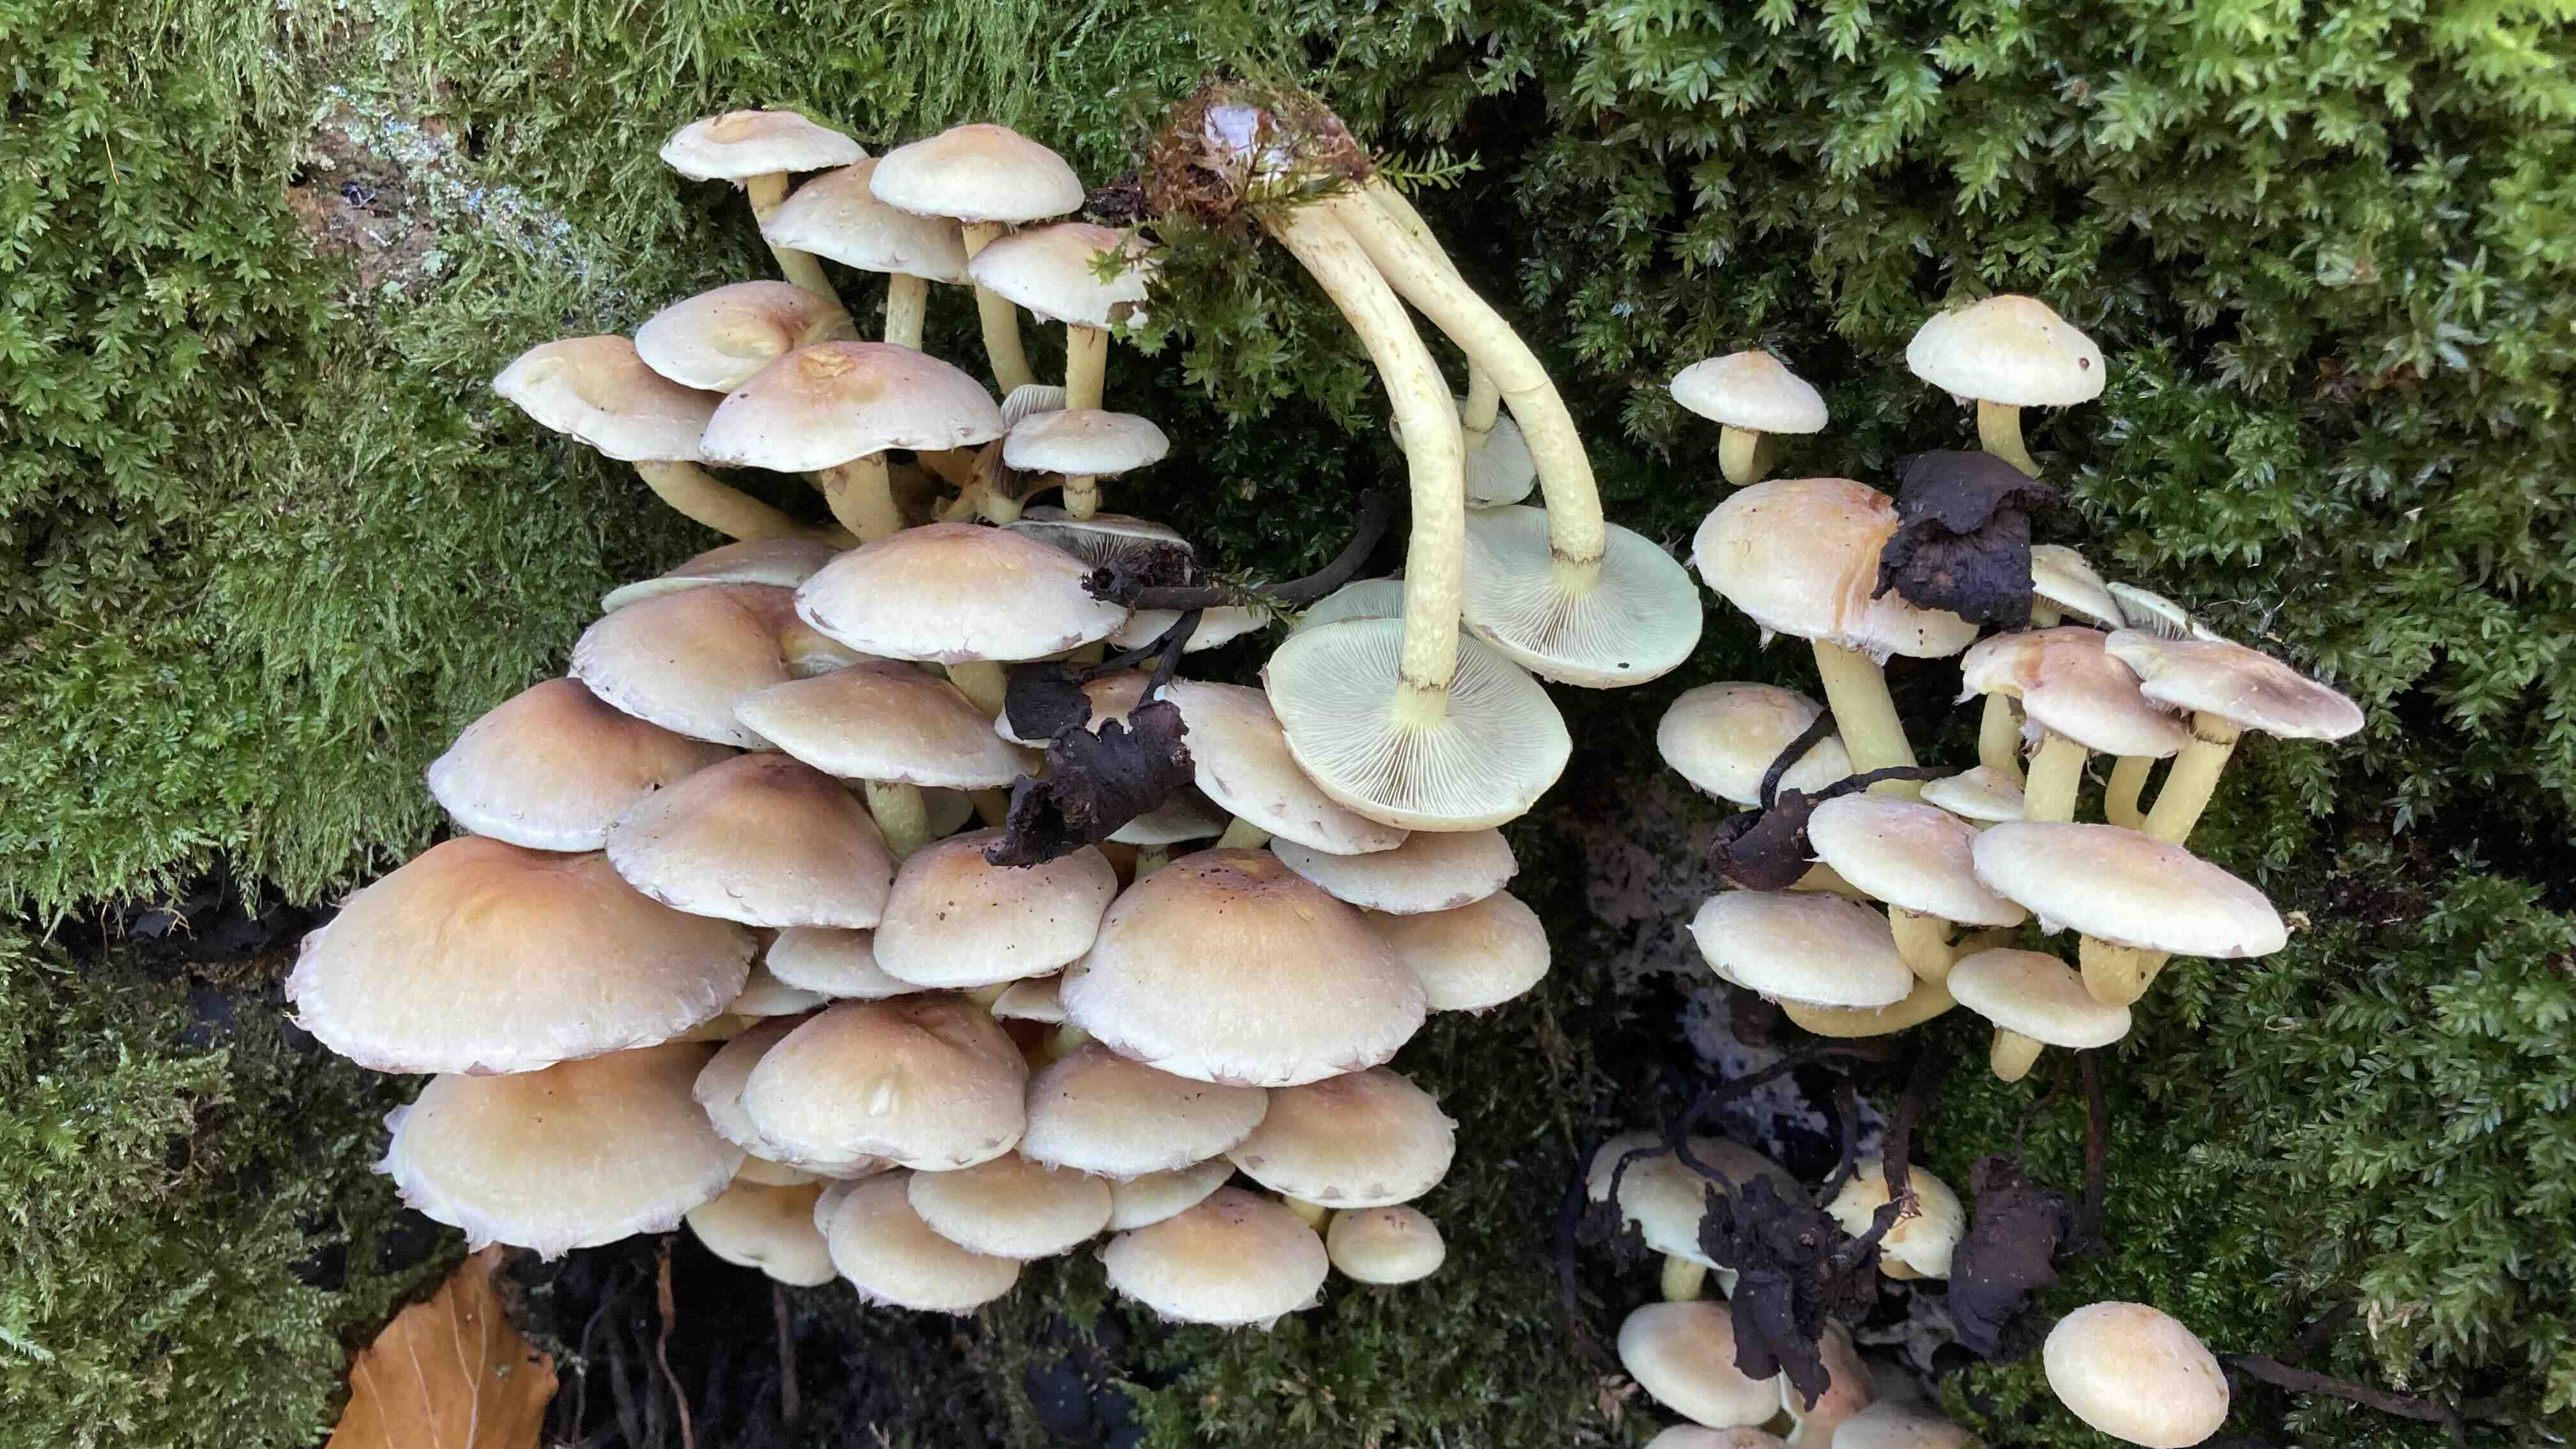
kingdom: Fungi
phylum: Basidiomycota
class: Agaricomycetes
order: Agaricales
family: Strophariaceae
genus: Hypholoma
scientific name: Hypholoma fasciculare
